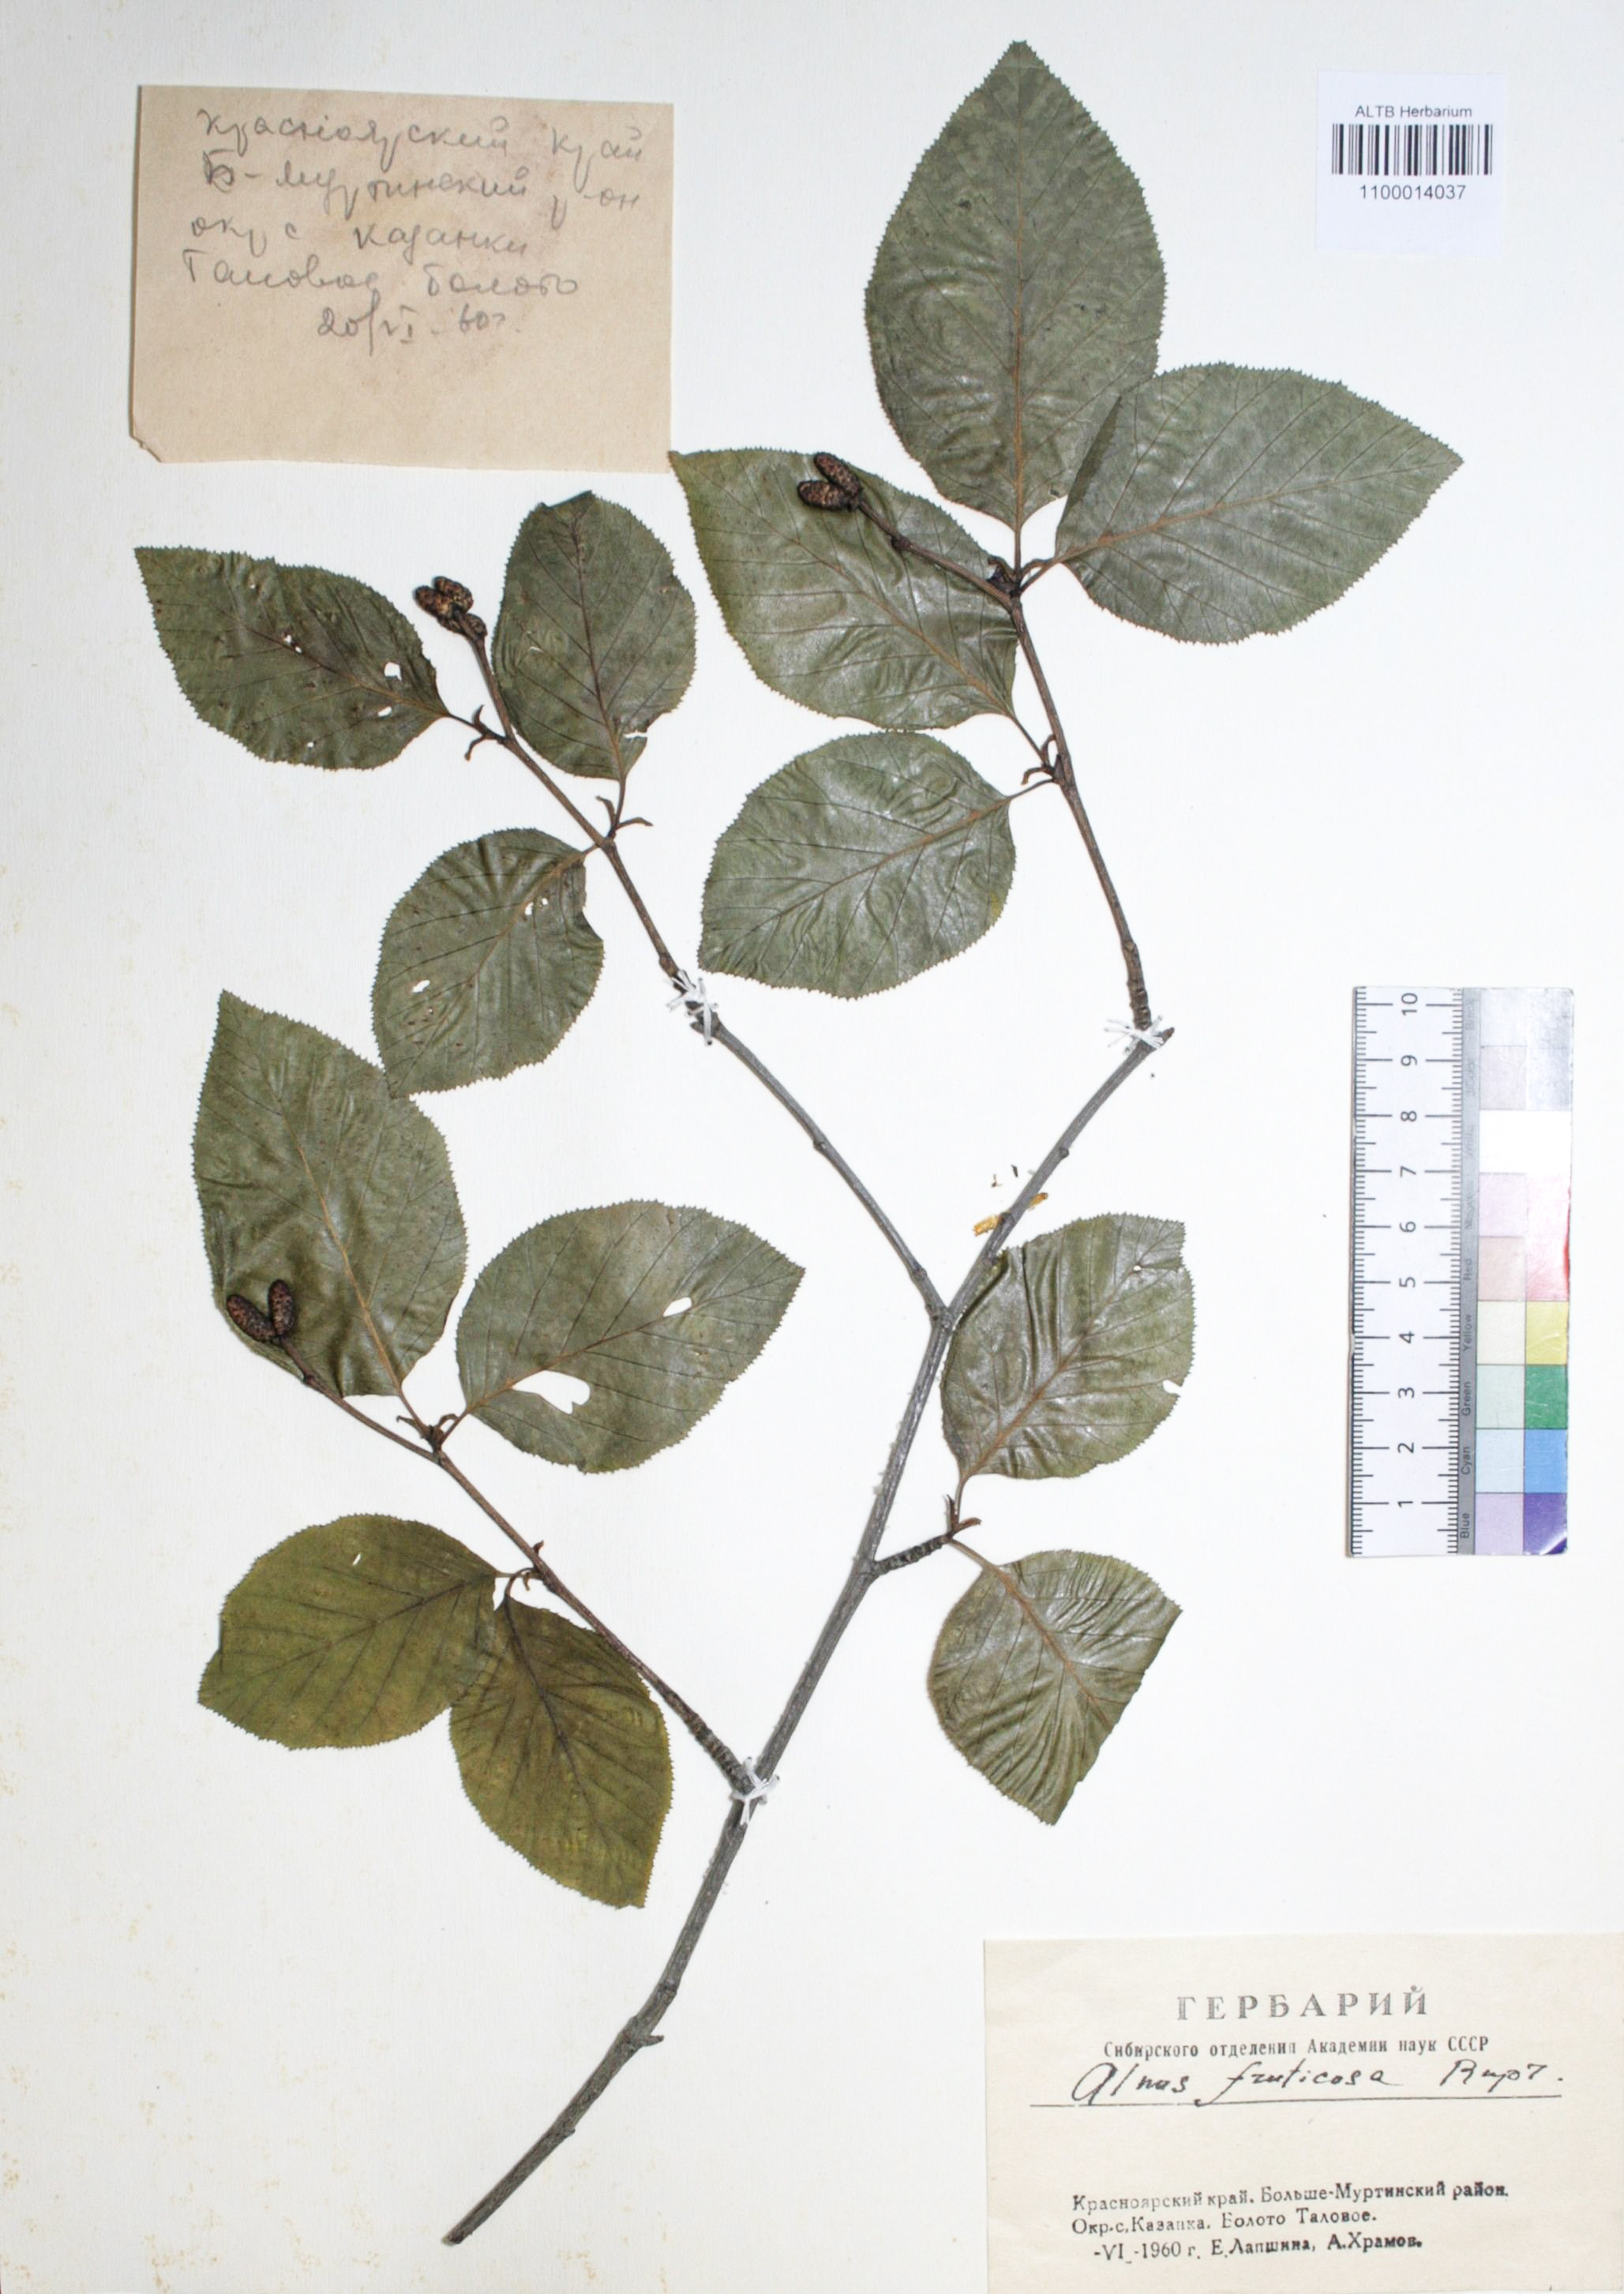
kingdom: Plantae
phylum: Tracheophyta
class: Magnoliopsida
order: Fagales
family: Betulaceae
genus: Alnus
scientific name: Alnus alnobetula
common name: Green alder
